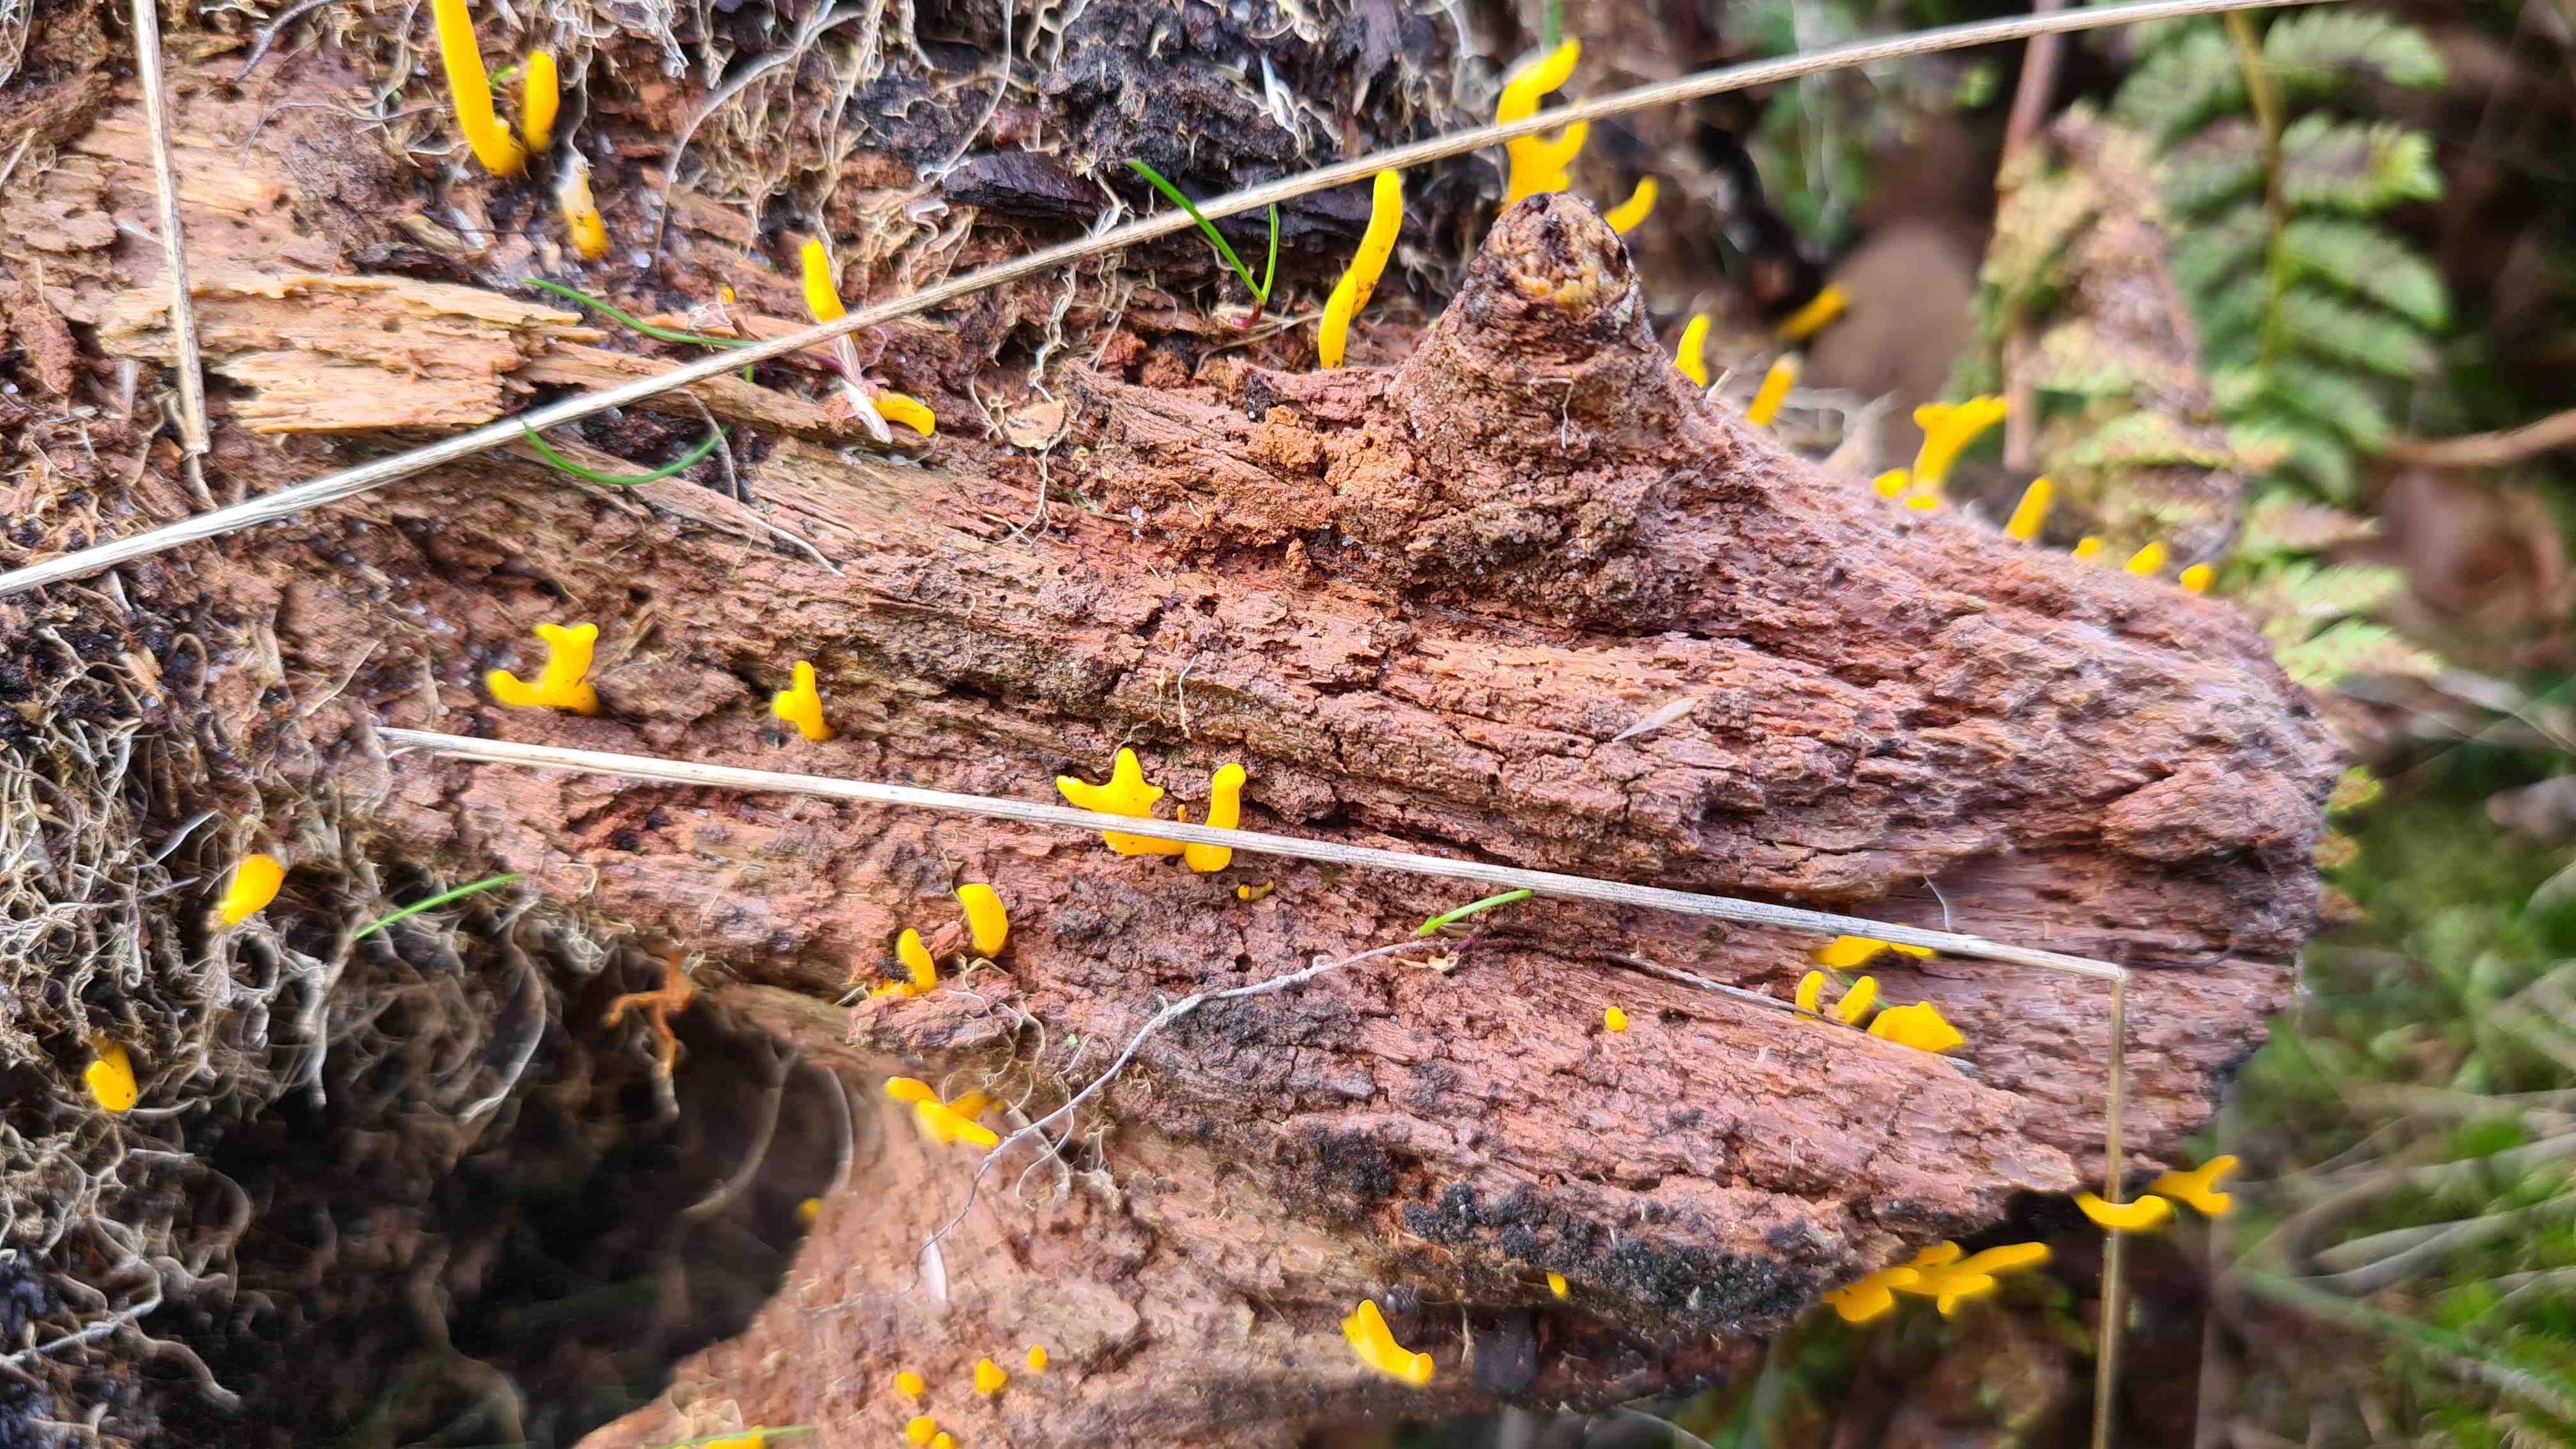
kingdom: Fungi
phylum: Basidiomycota
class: Dacrymycetes
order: Dacrymycetales
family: Dacrymycetaceae
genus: Calocera
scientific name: Calocera viscosa
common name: almindelig guldgaffel
